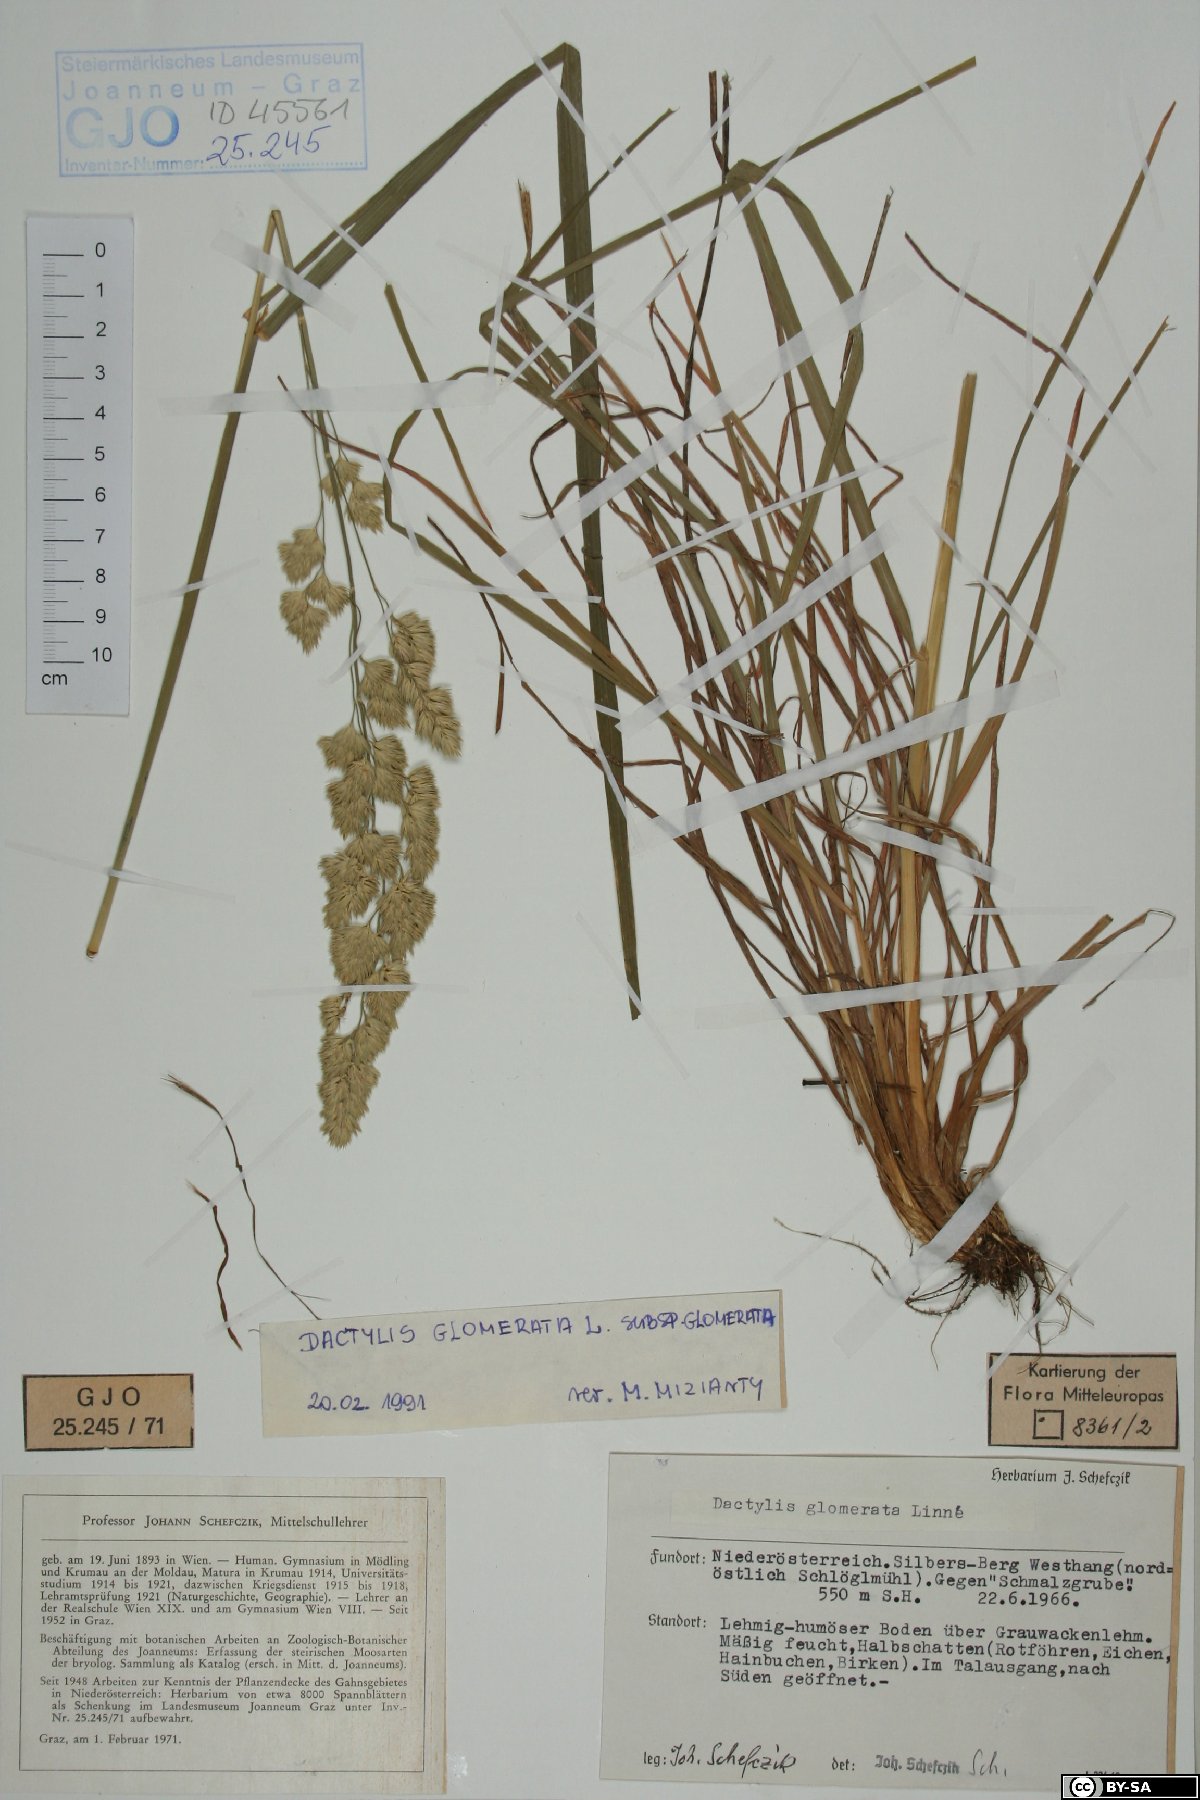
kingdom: Plantae
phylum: Tracheophyta
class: Liliopsida
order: Poales
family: Poaceae
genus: Dactylis
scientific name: Dactylis glomerata
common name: Orchardgrass
